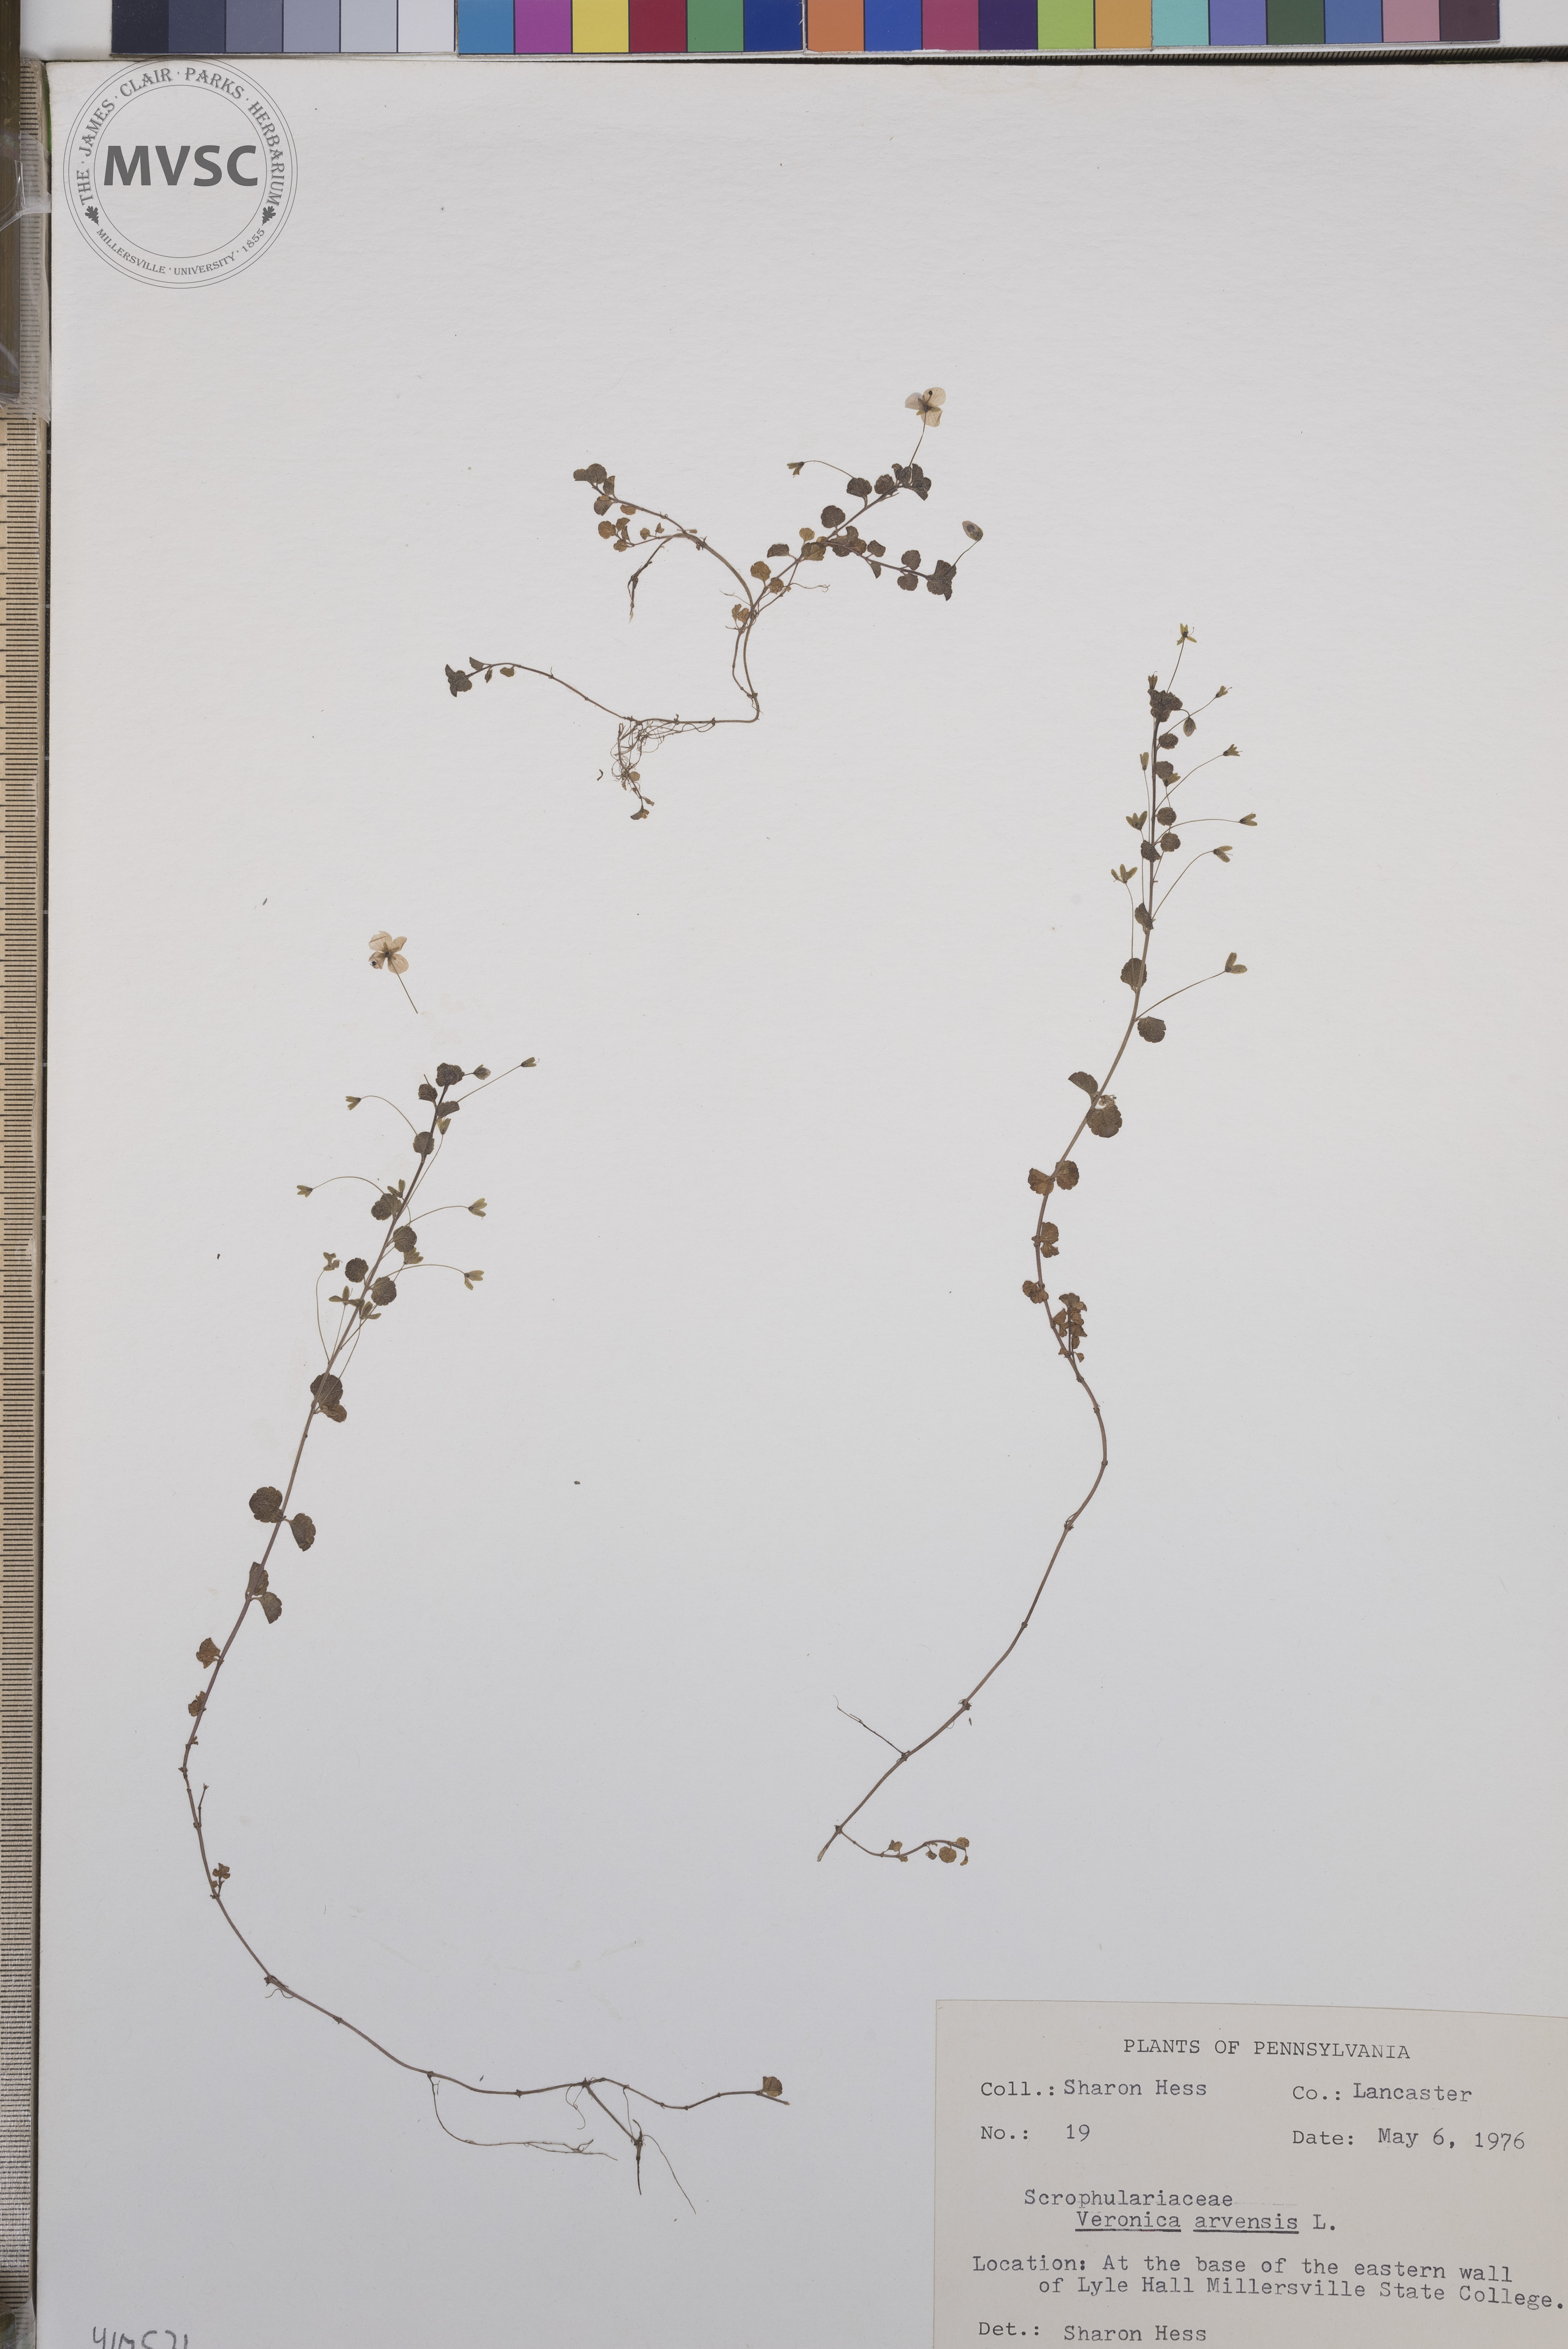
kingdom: Plantae
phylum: Tracheophyta
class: Magnoliopsida
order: Lamiales
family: Plantaginaceae
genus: Veronica
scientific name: Veronica arvensis
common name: Corn speedwell
